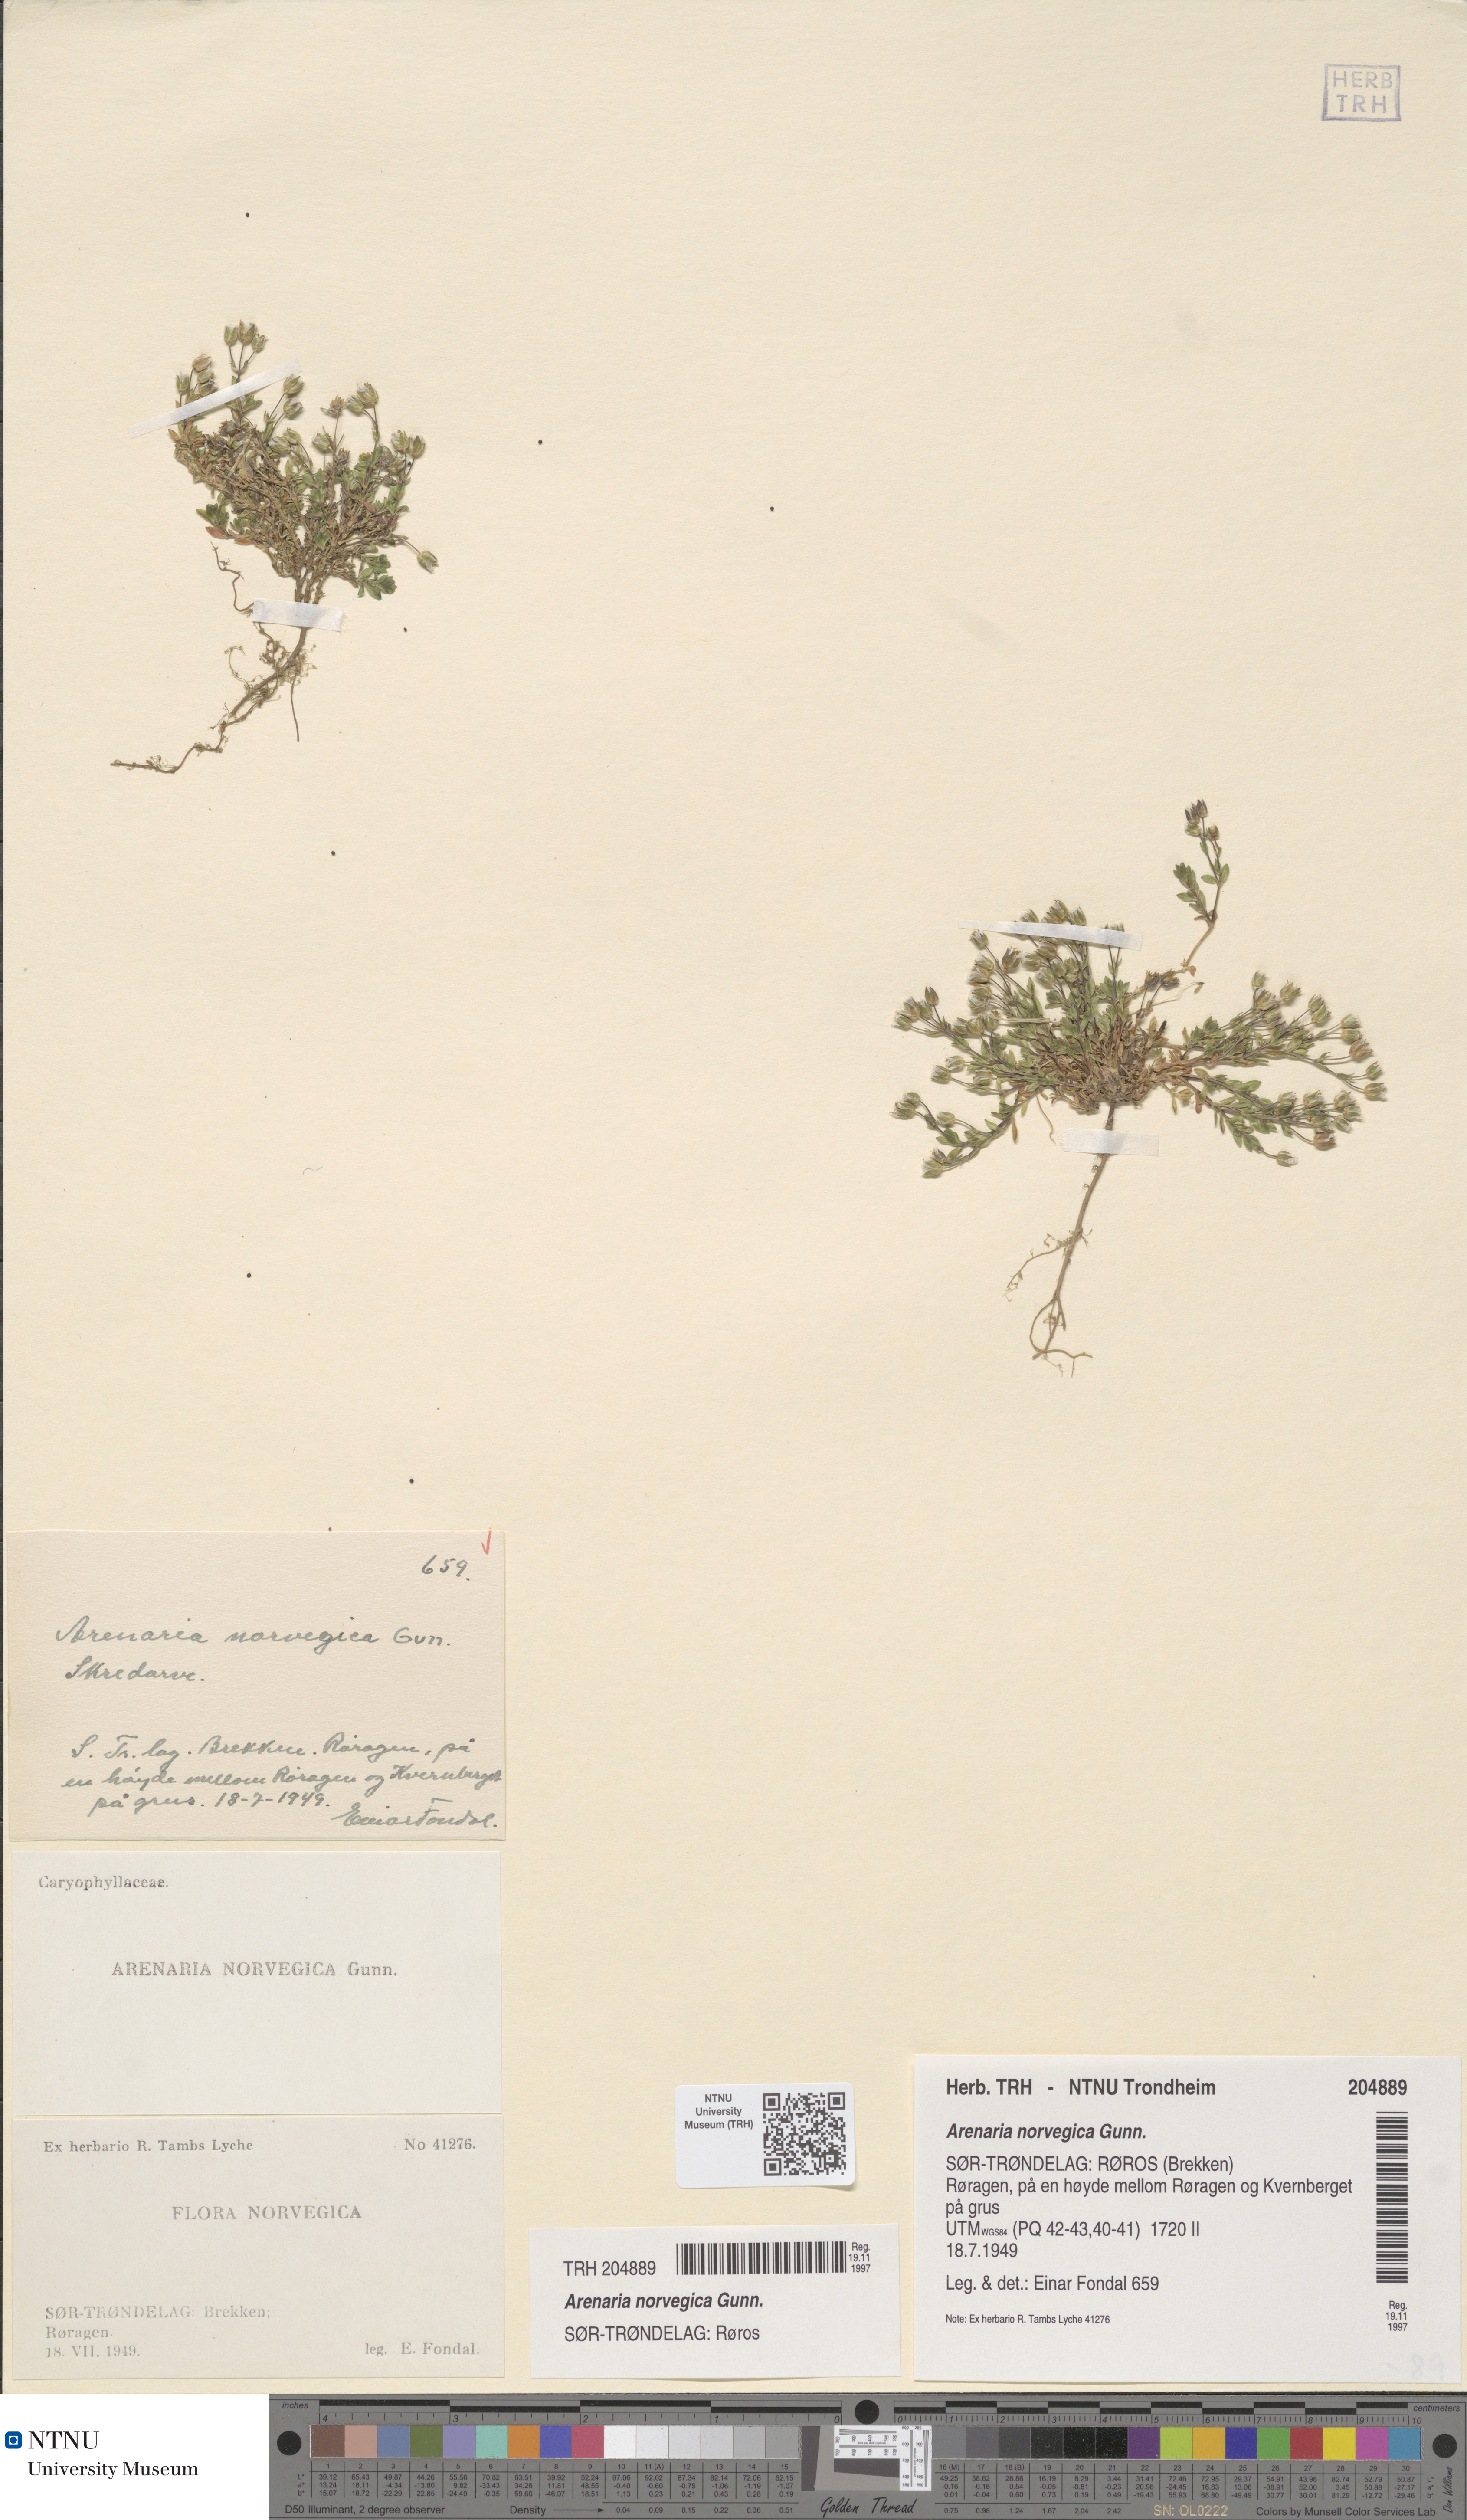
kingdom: Plantae
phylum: Tracheophyta
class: Magnoliopsida
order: Caryophyllales
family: Caryophyllaceae
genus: Arenaria
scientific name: Arenaria norvegica
